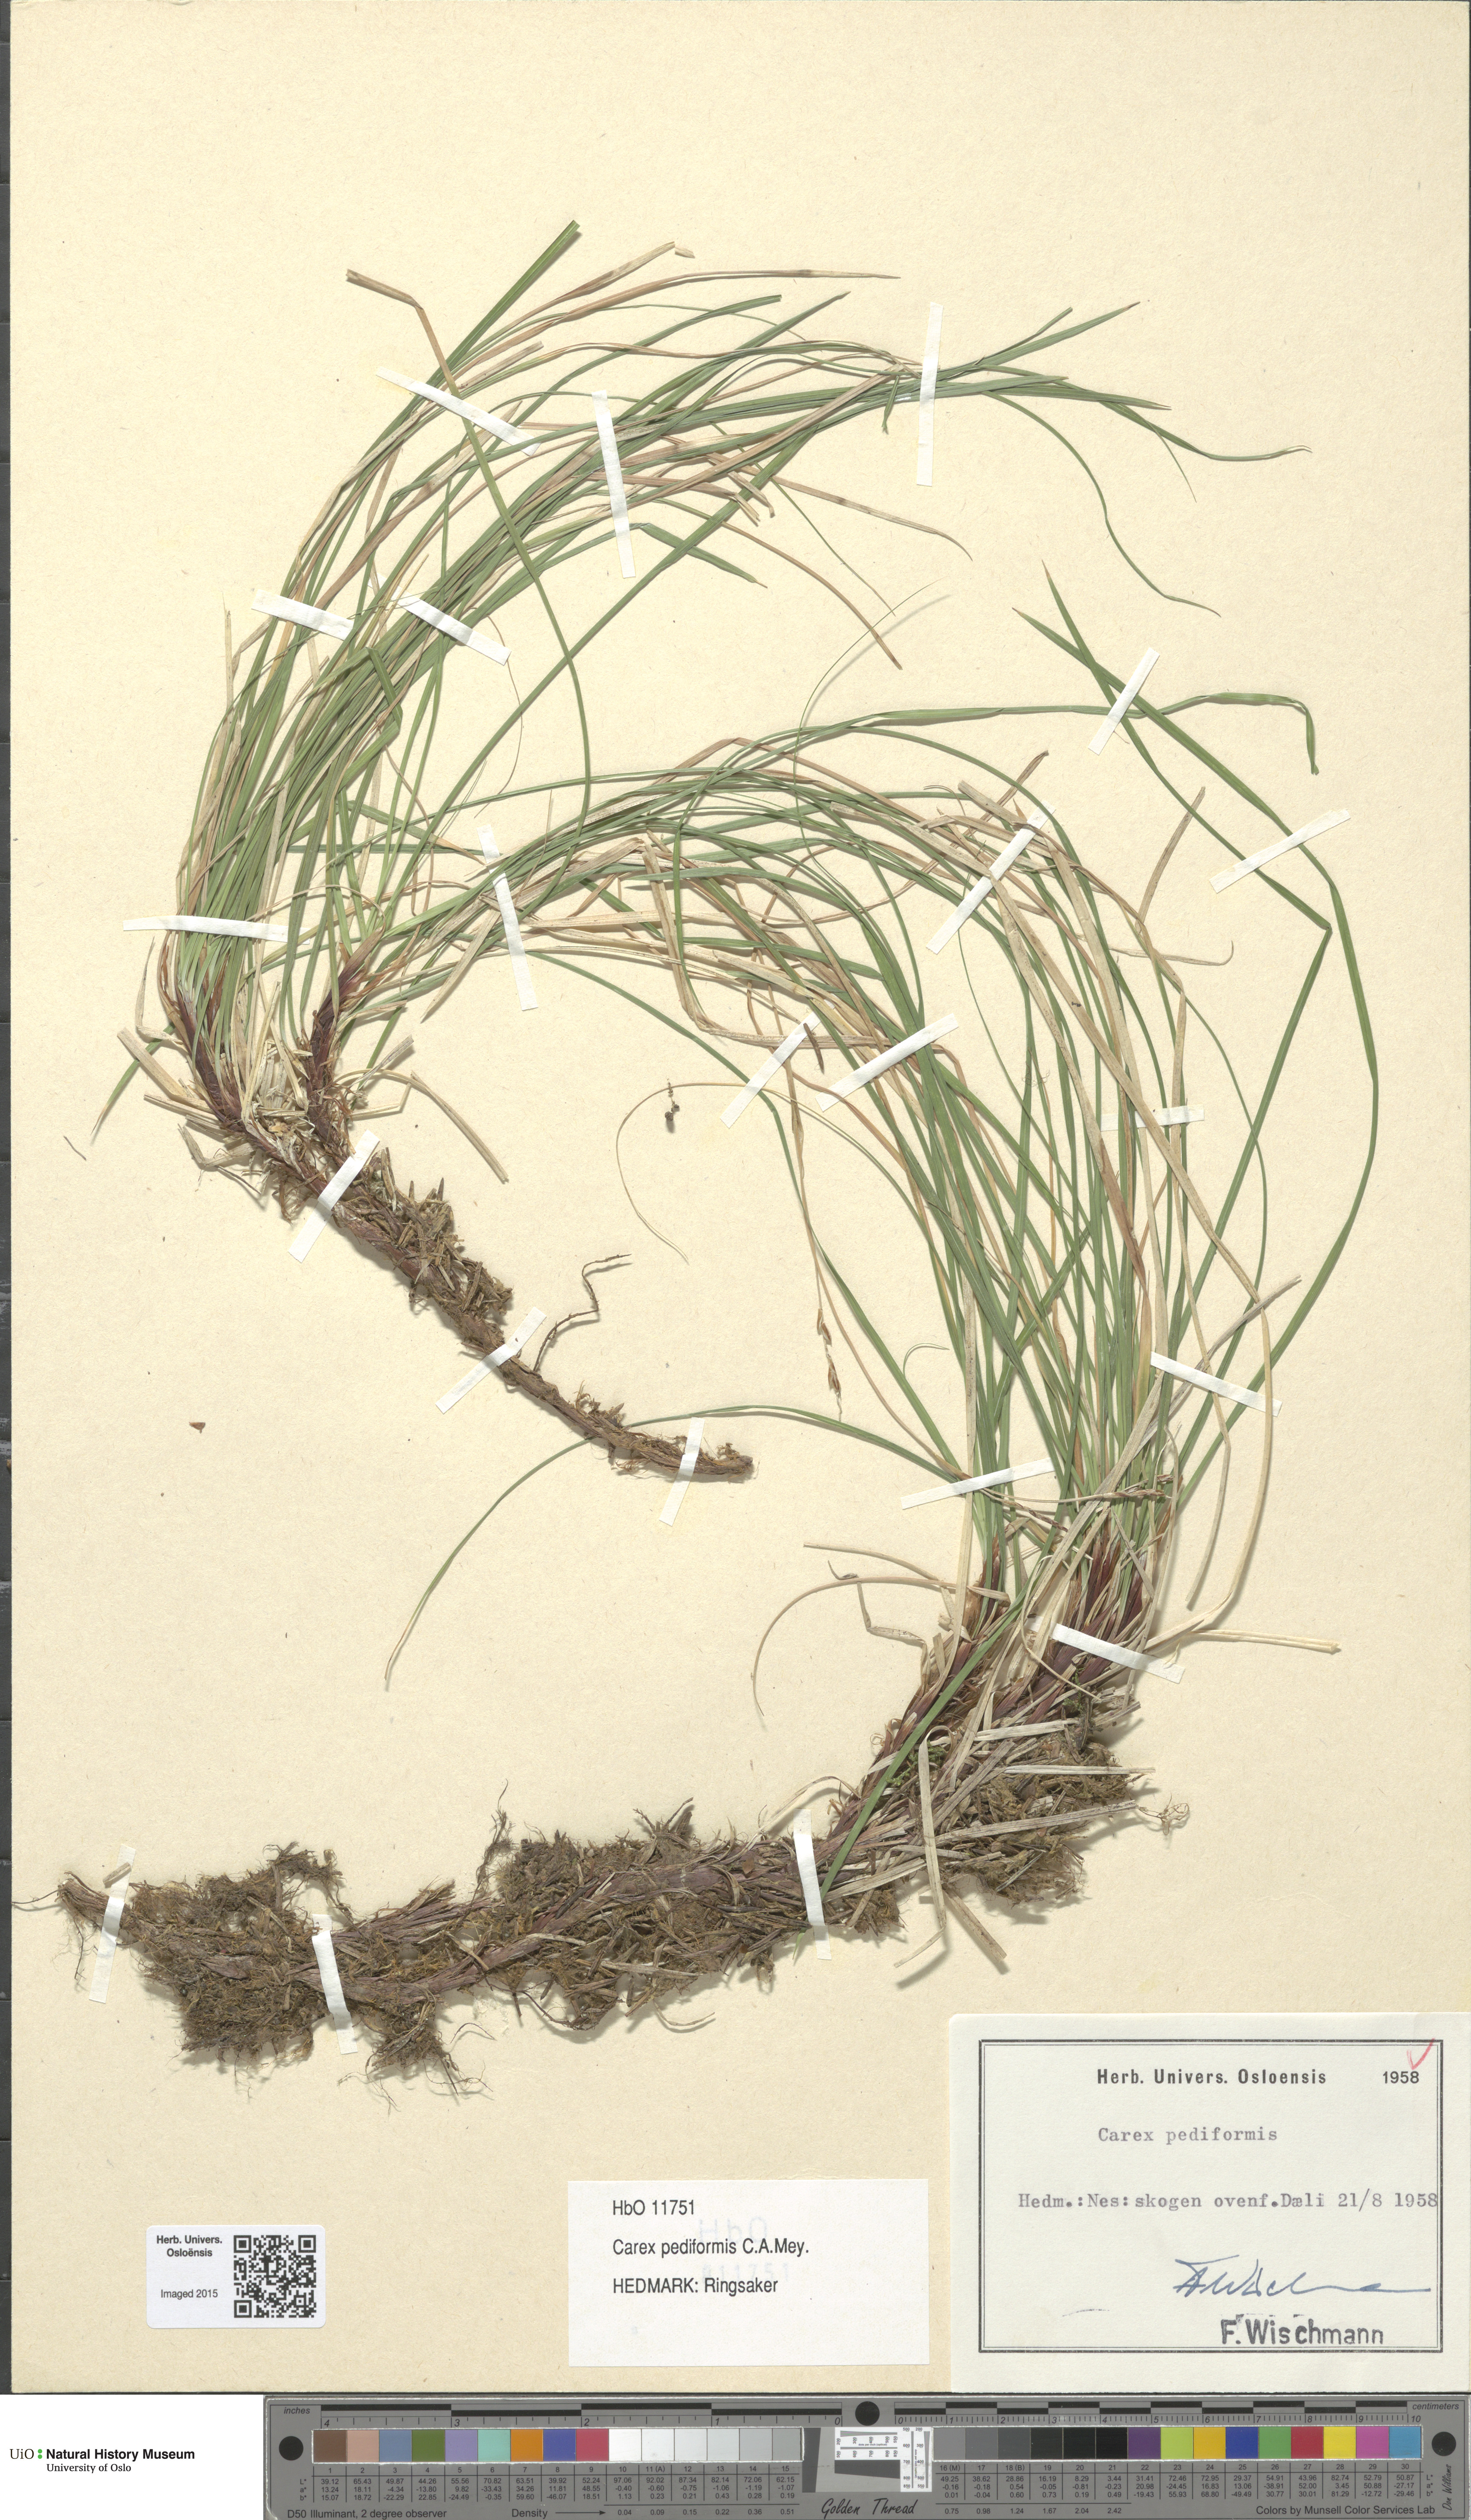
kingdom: Plantae
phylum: Tracheophyta
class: Liliopsida
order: Poales
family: Cyperaceae
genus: Carex
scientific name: Carex rhizina
